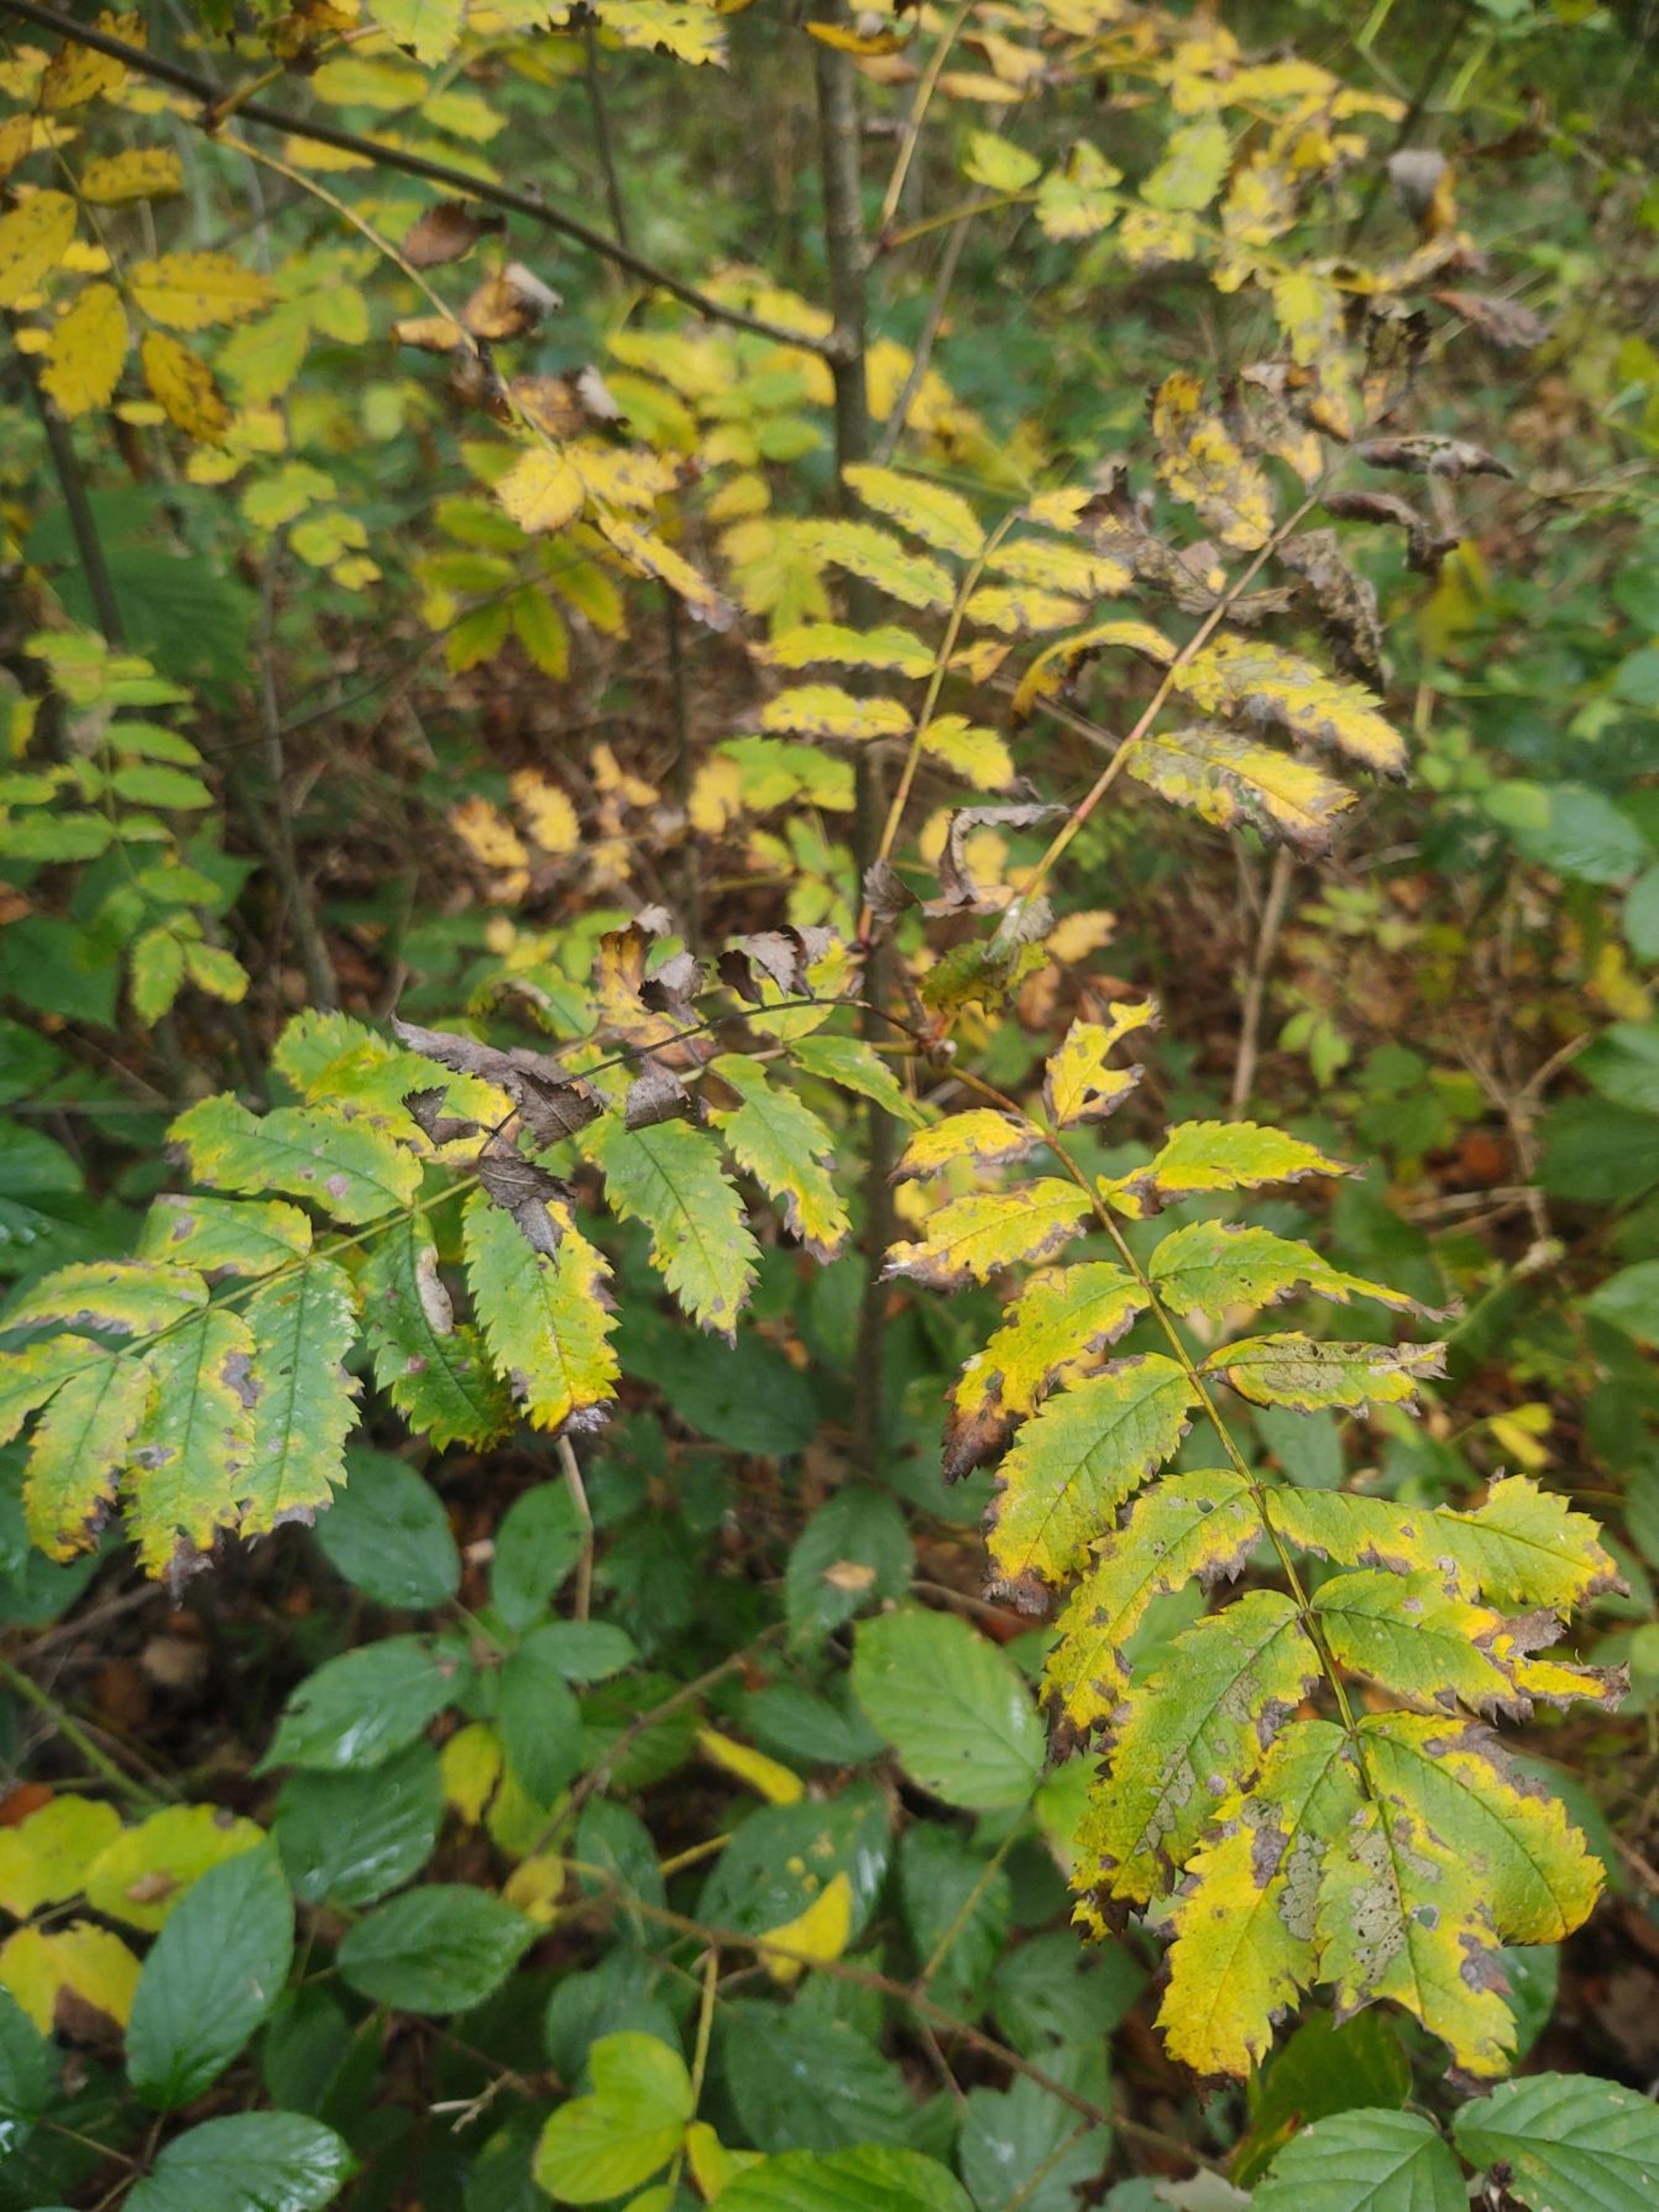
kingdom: Plantae
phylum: Tracheophyta
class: Magnoliopsida
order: Rosales
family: Rosaceae
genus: Sorbus
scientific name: Sorbus aucuparia
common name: Almindelig røn
